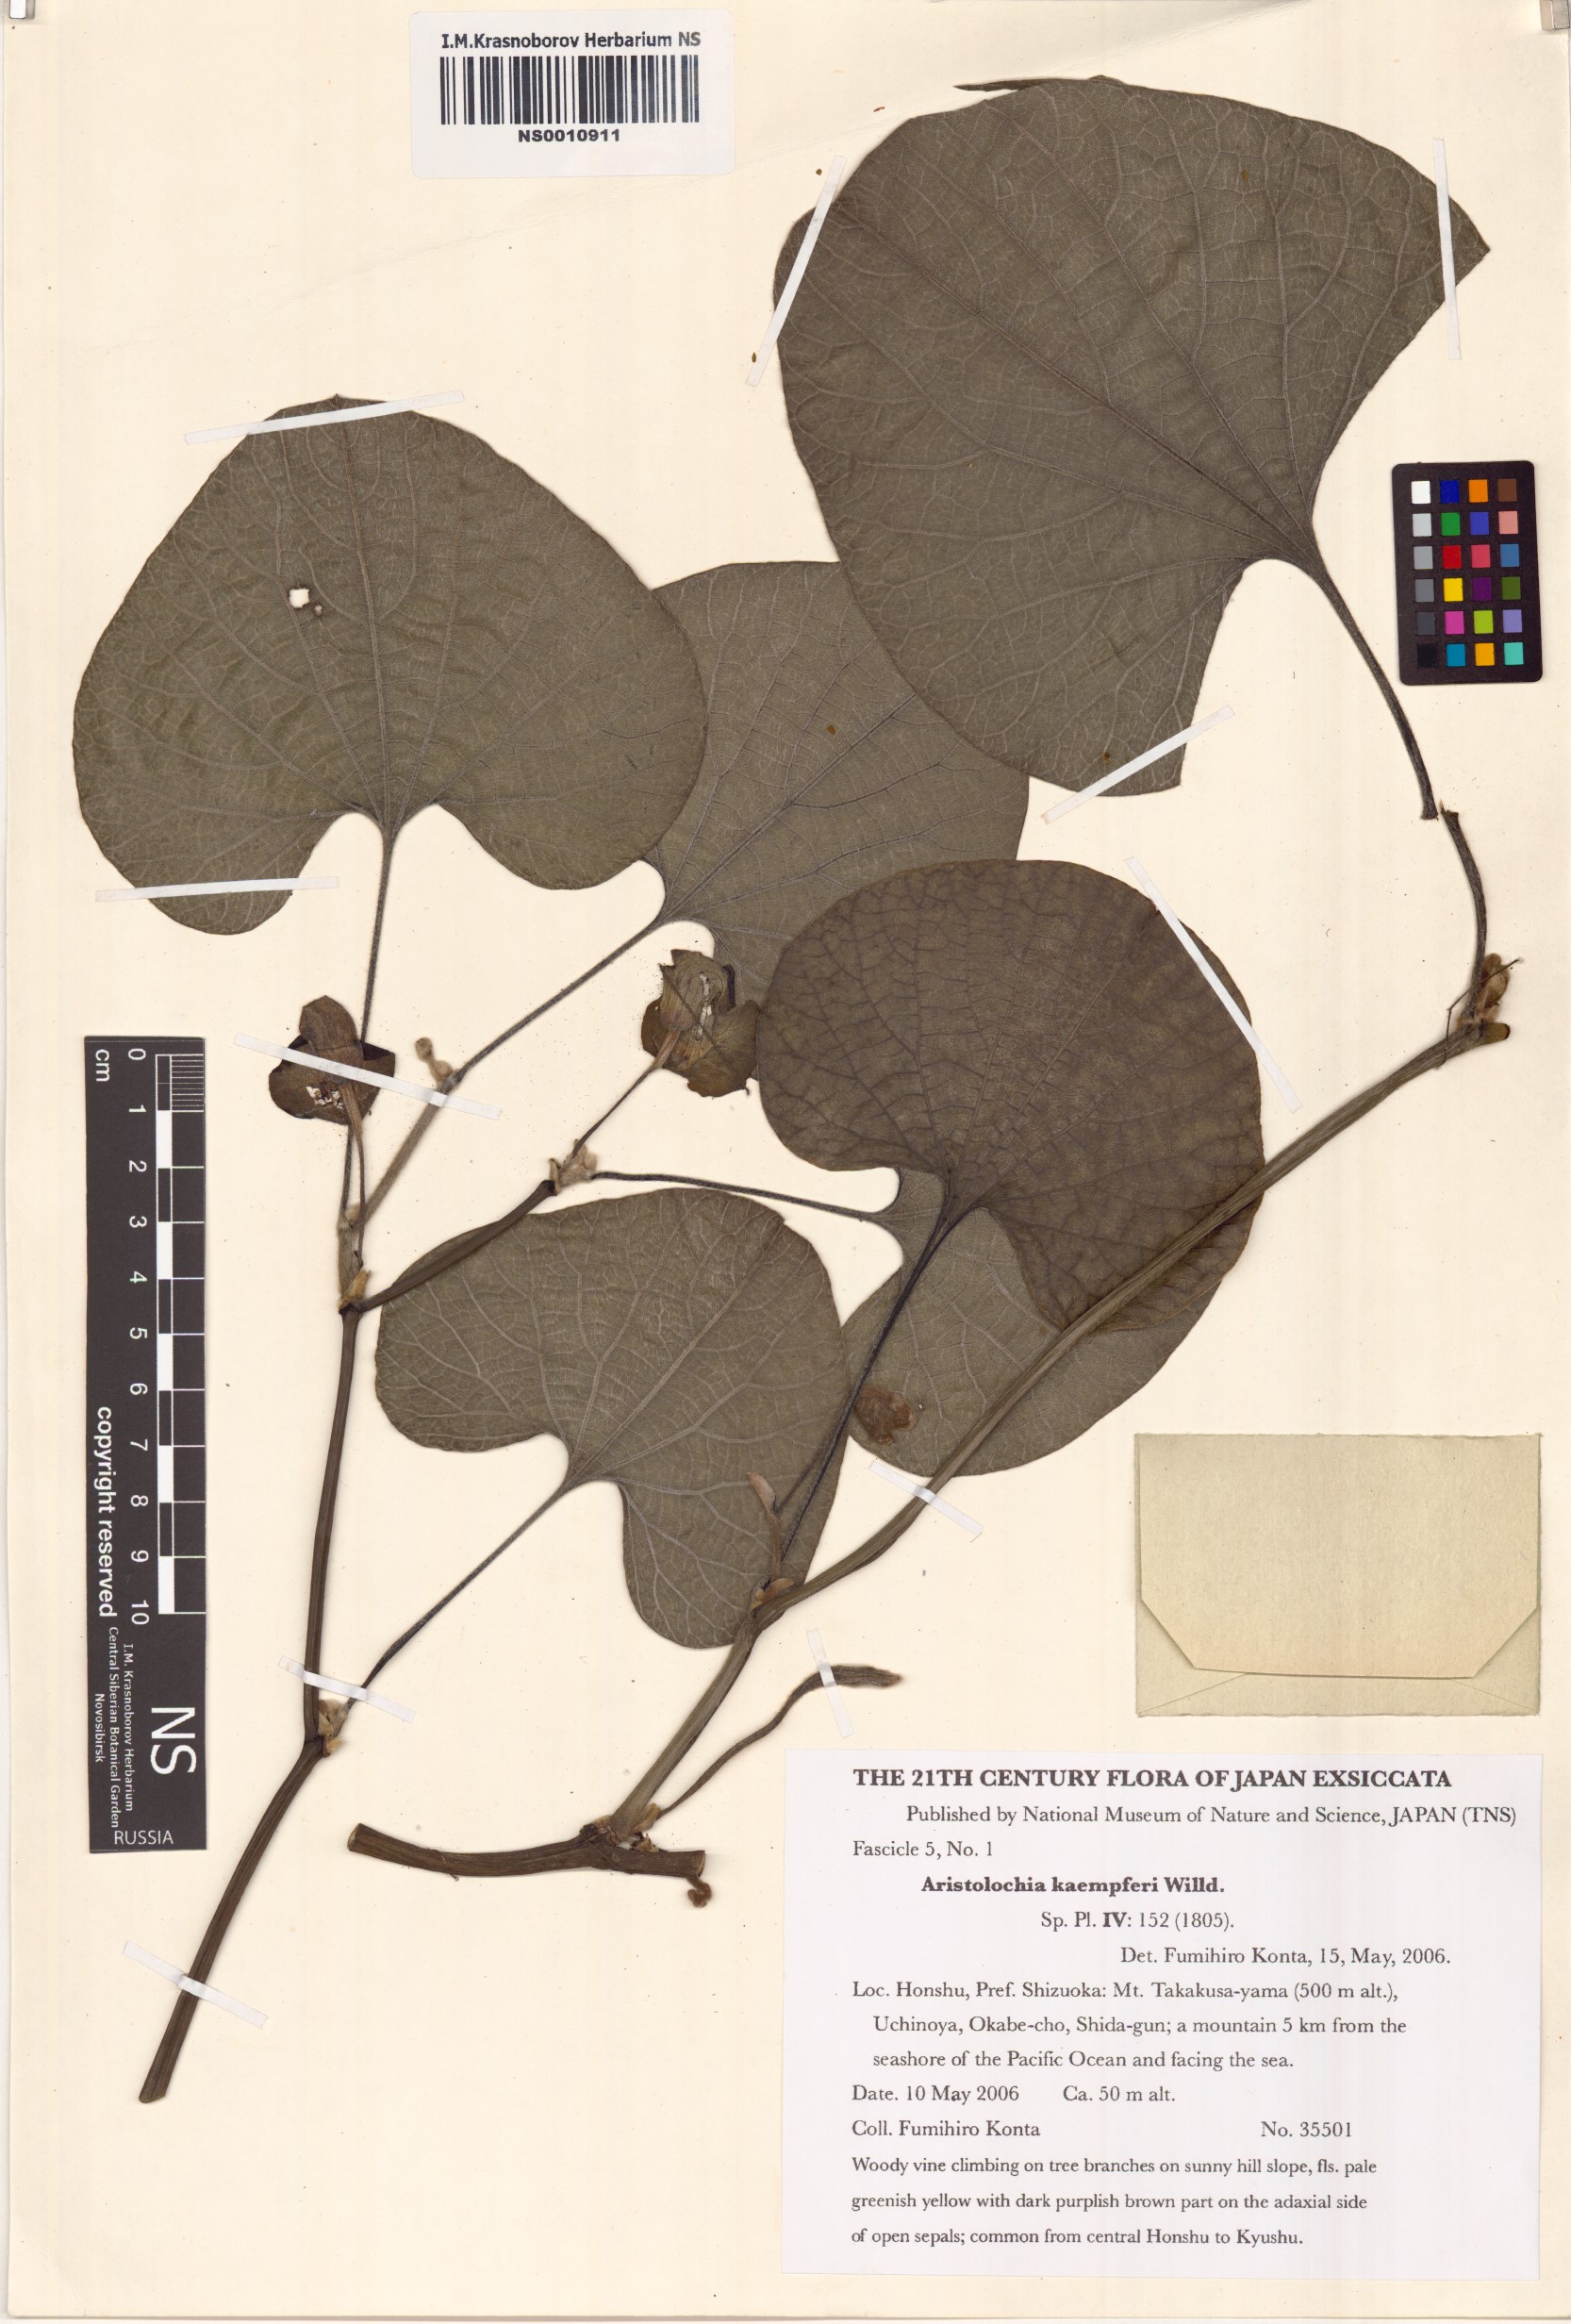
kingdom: Plantae
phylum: Tracheophyta
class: Magnoliopsida
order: Piperales
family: Aristolochiaceae
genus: Isotrema
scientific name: Isotrema kaempferi
